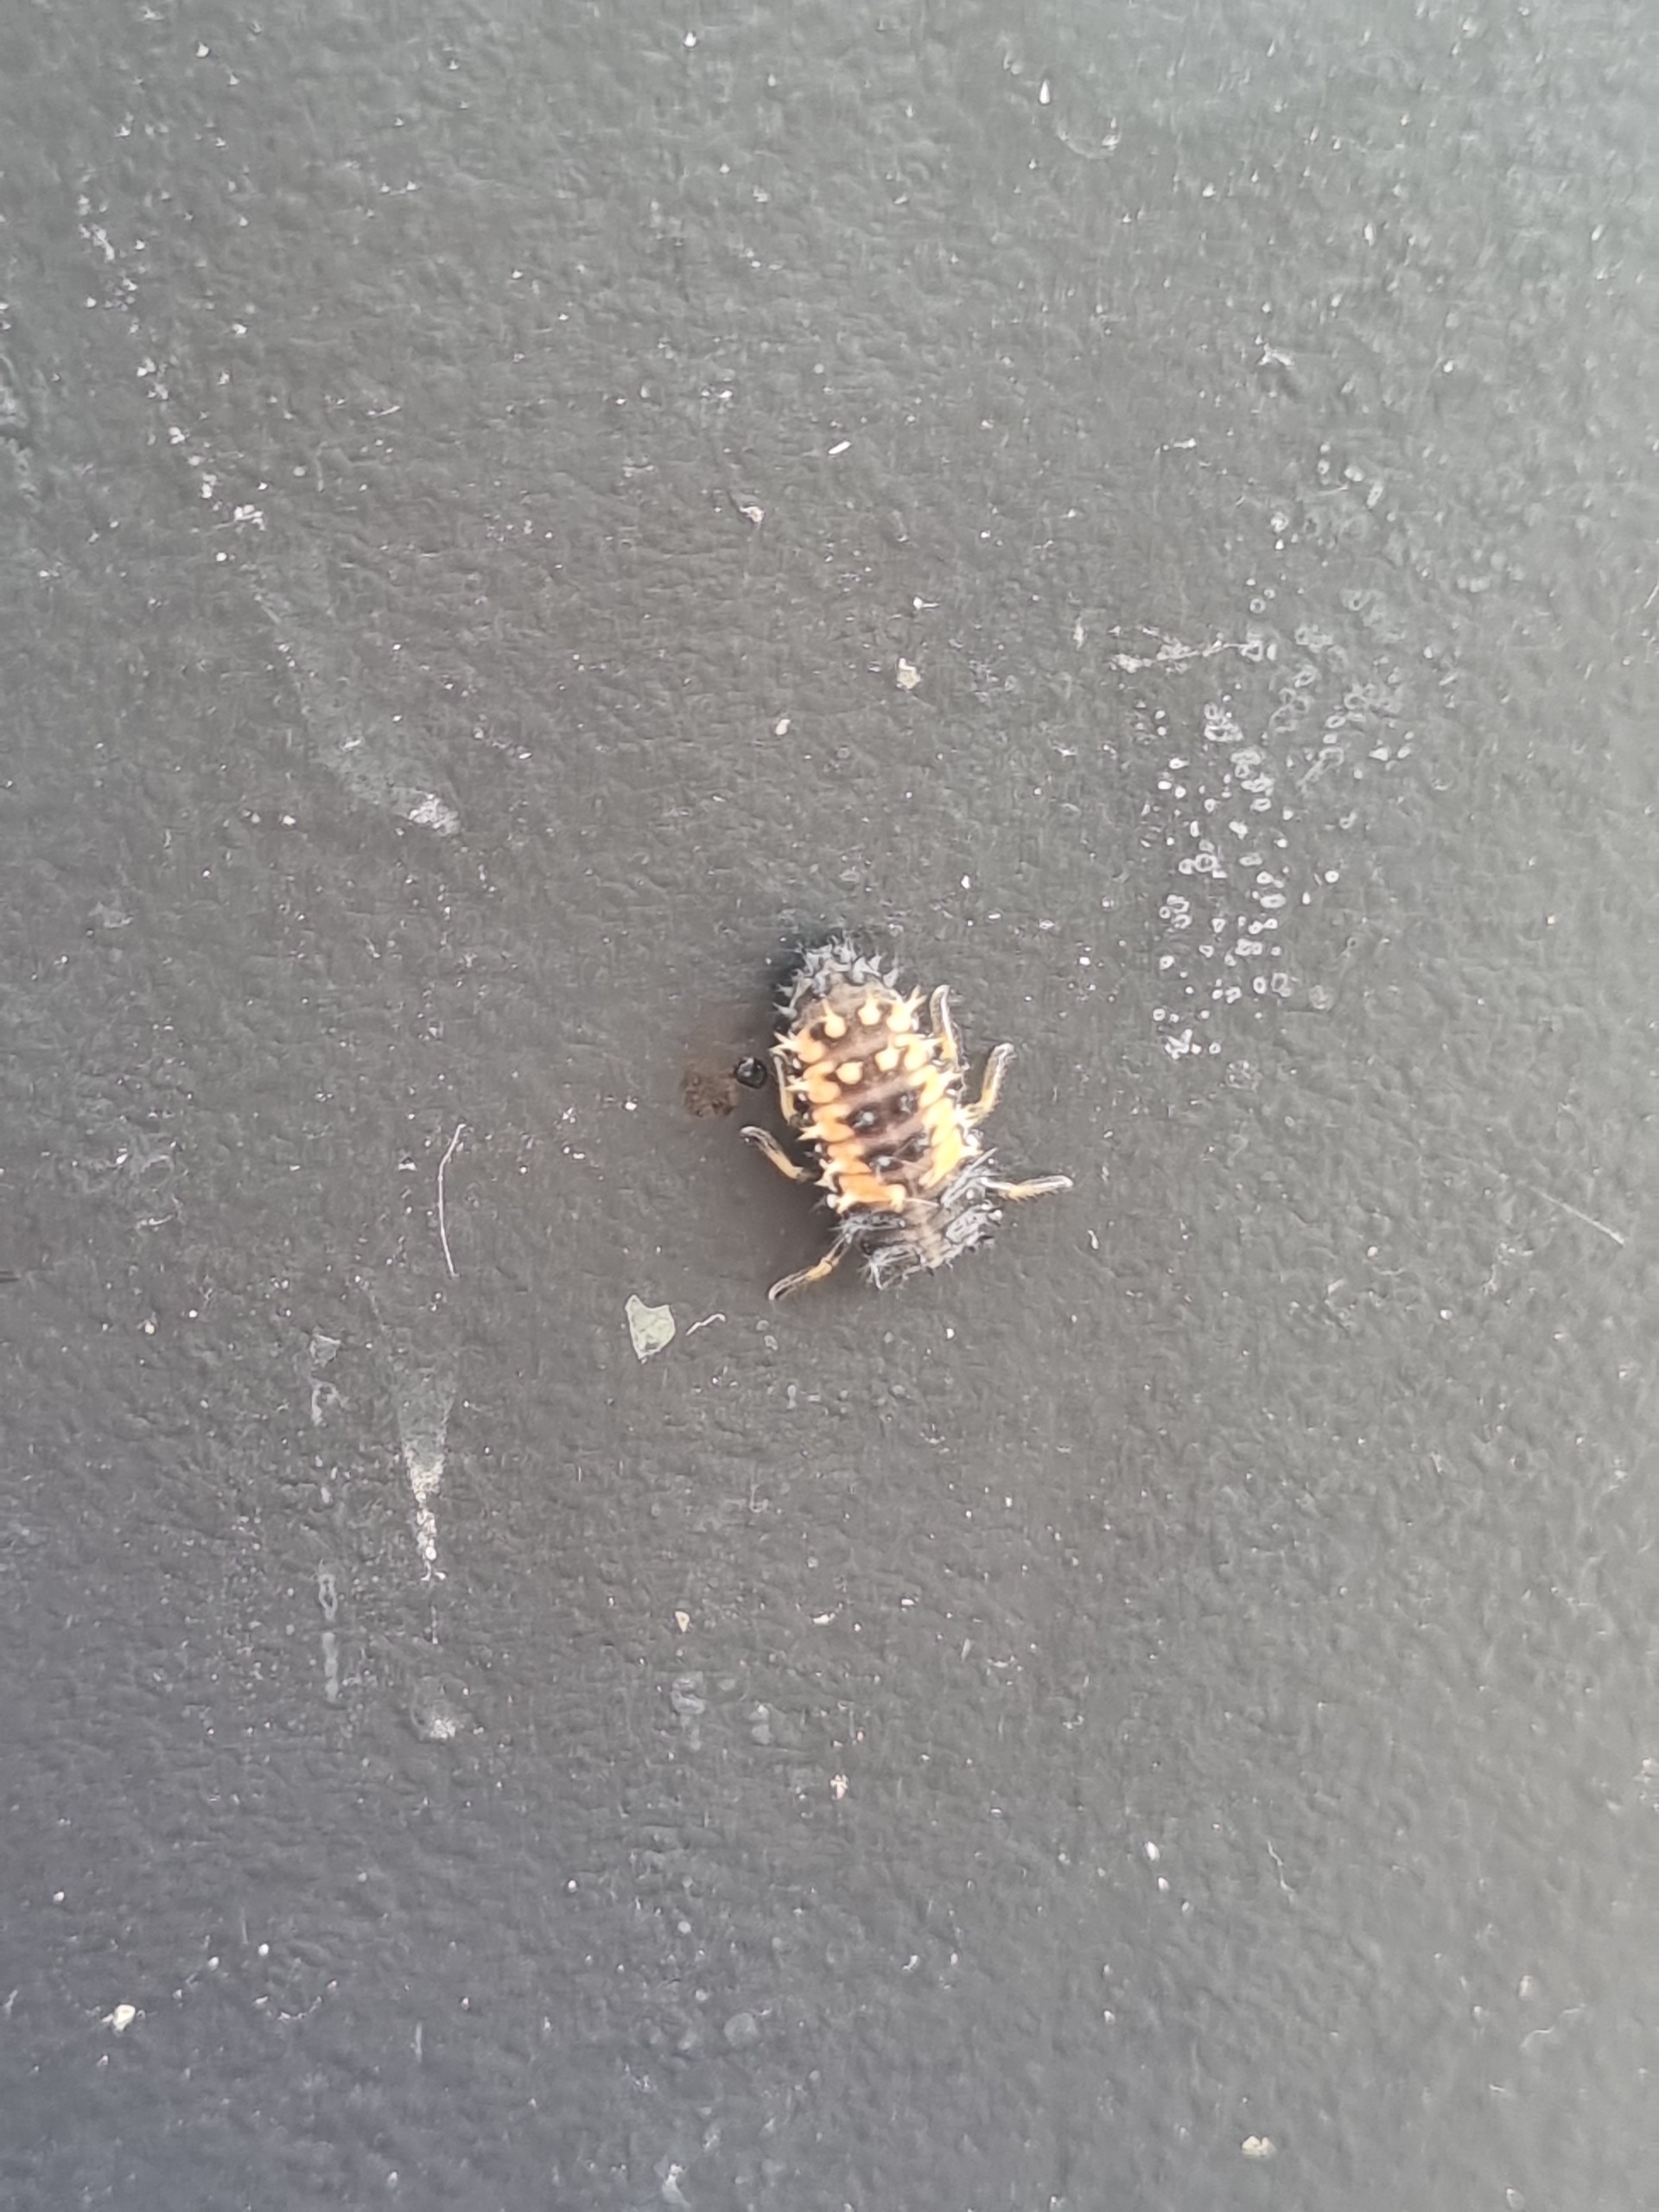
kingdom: Animalia
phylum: Arthropoda
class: Insecta
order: Coleoptera
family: Coccinellidae
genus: Harmonia
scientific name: Harmonia axyridis
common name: Harlekinmariehøne
